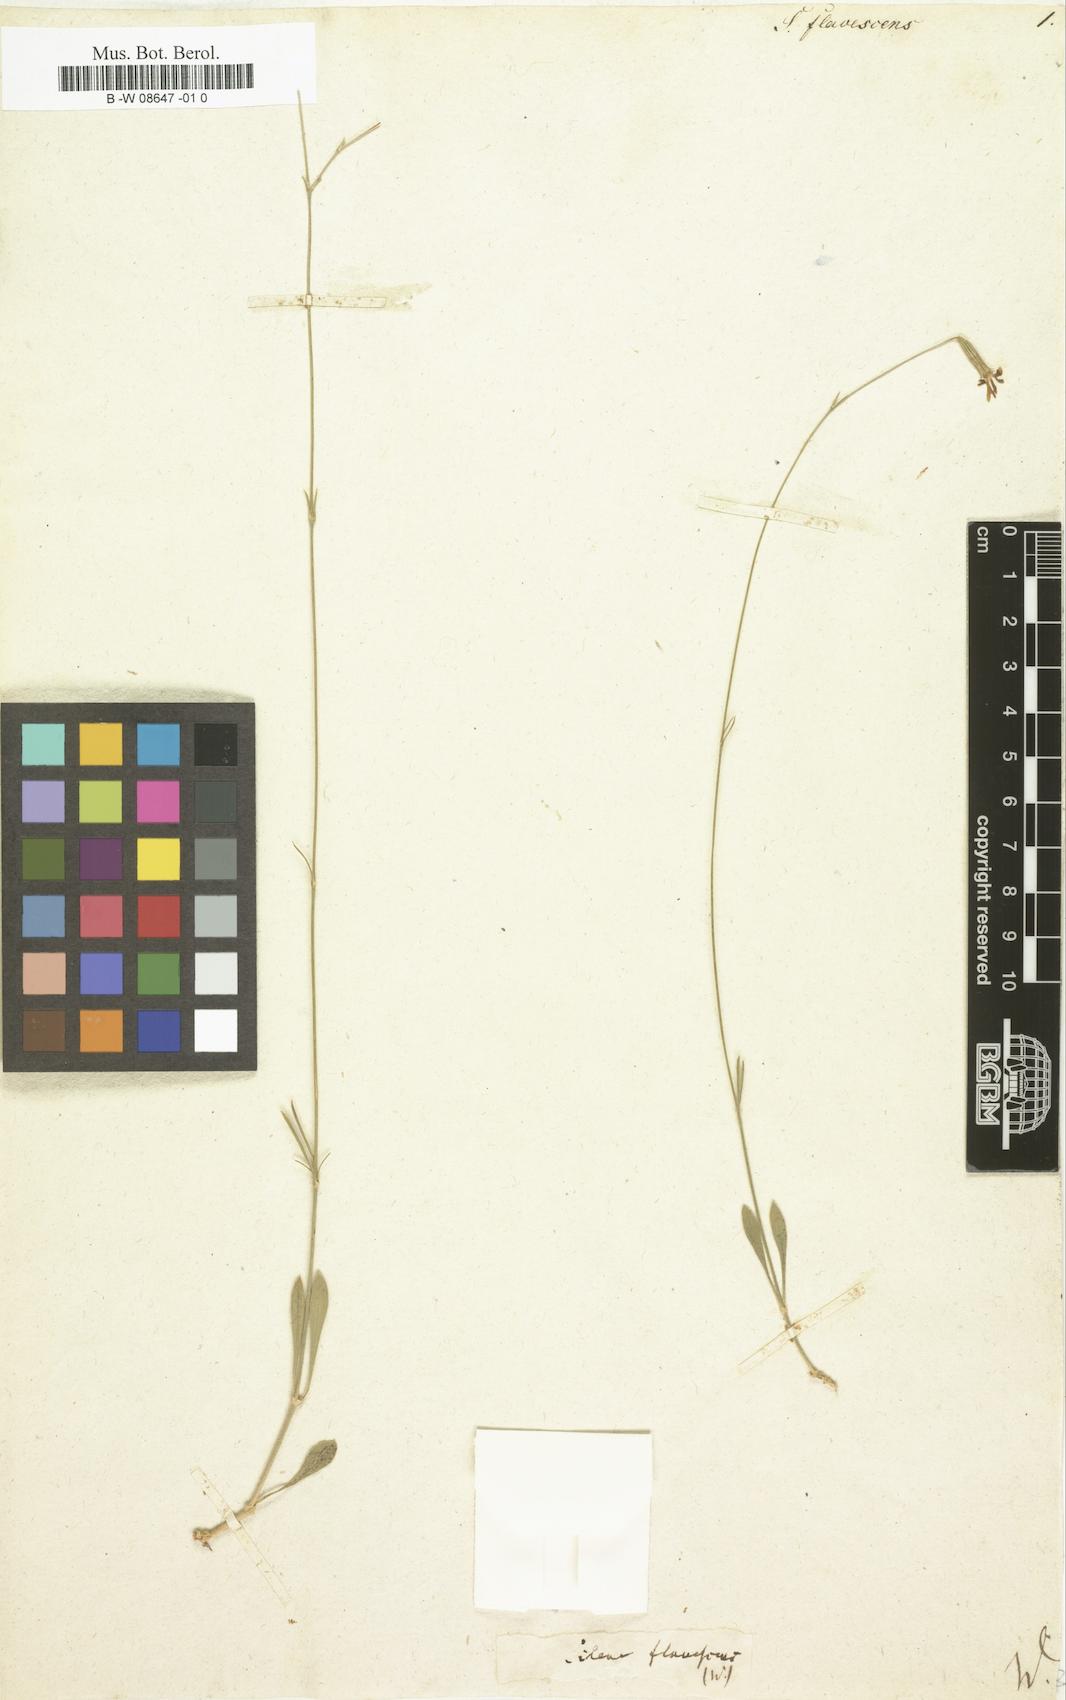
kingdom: Plantae
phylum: Tracheophyta
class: Magnoliopsida
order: Caryophyllales
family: Caryophyllaceae
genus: Silene
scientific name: Silene flavescens
